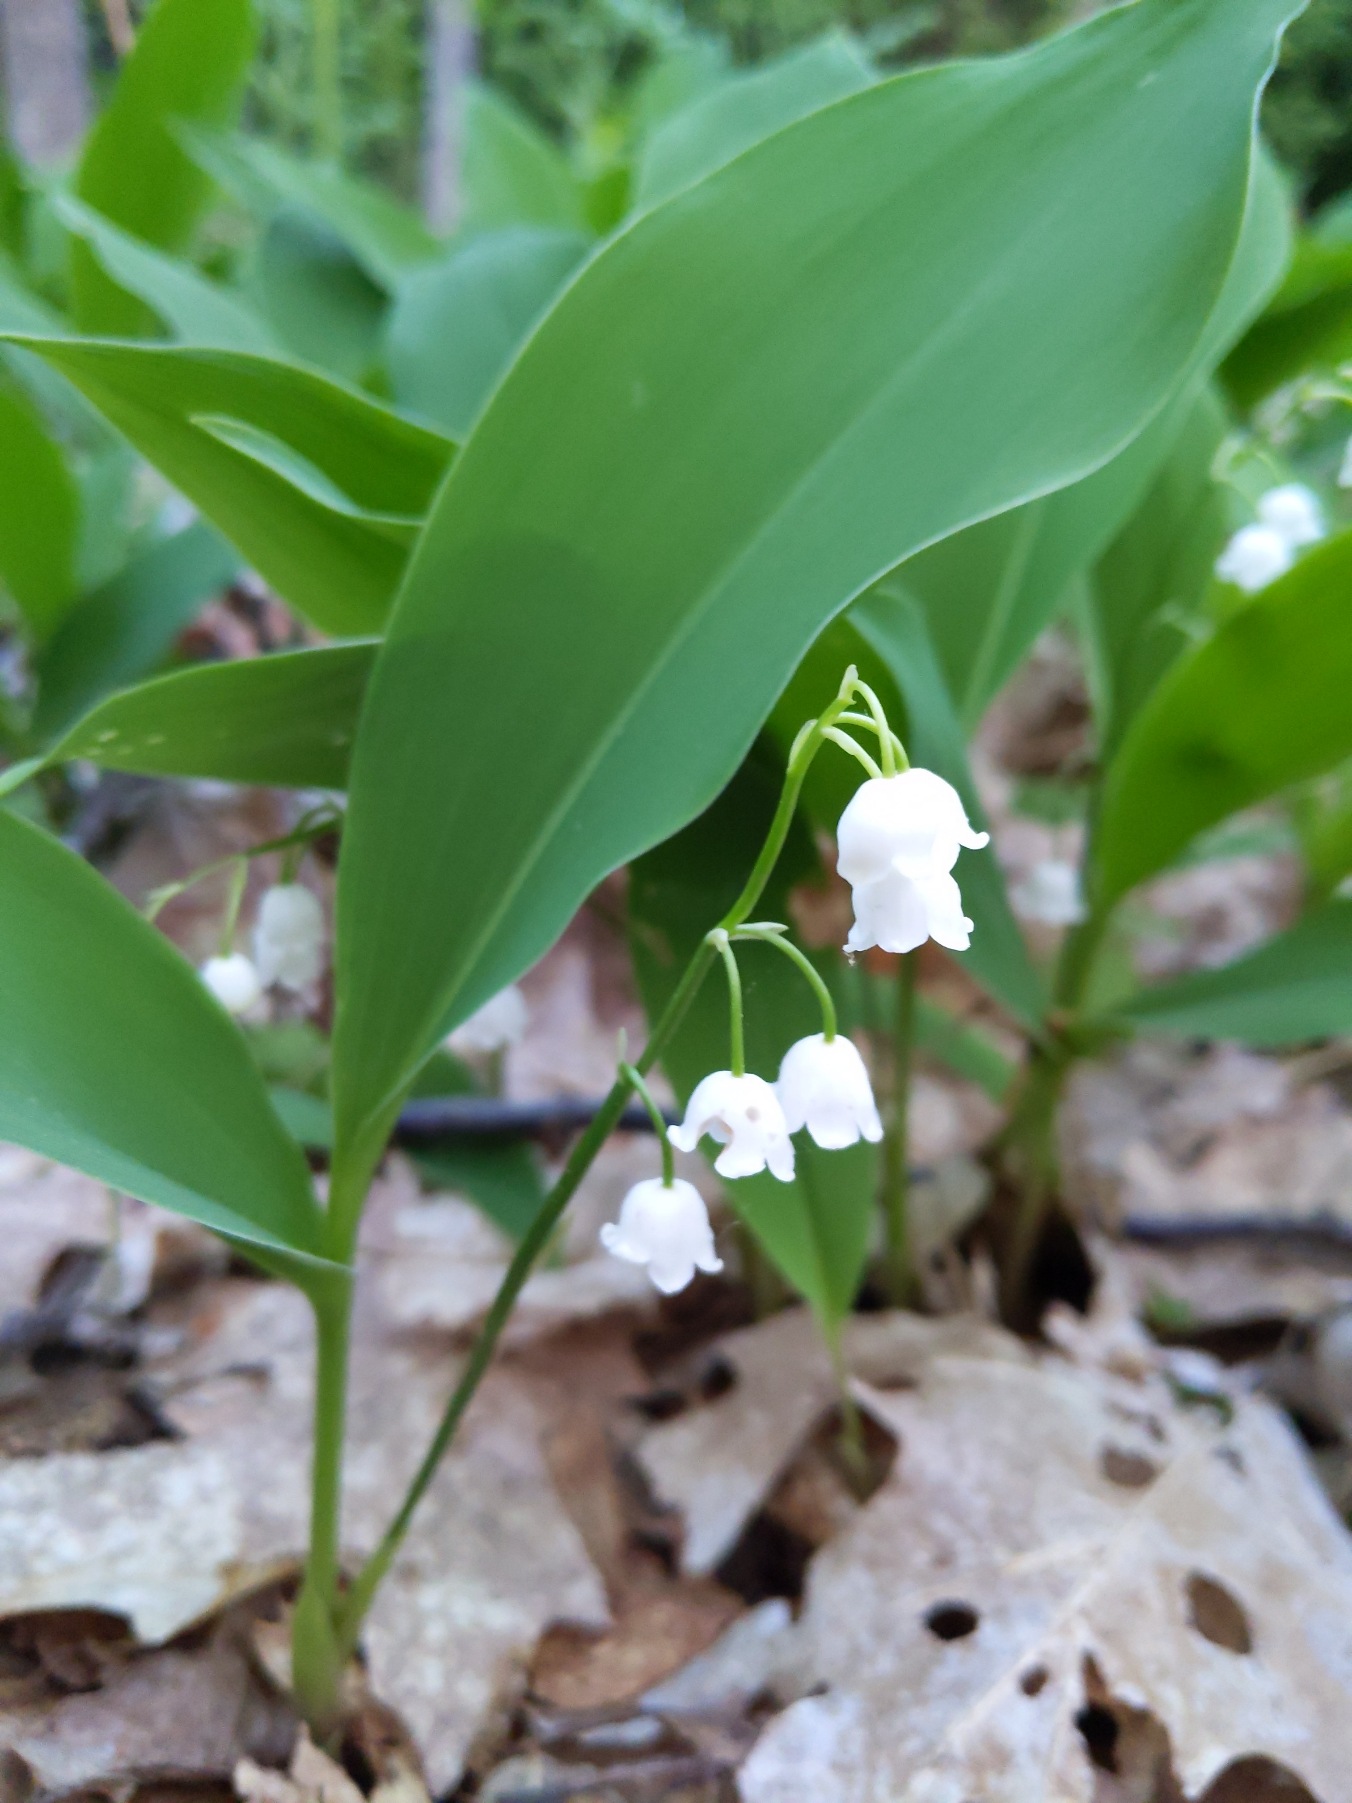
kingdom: Plantae
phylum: Tracheophyta
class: Liliopsida
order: Asparagales
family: Asparagaceae
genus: Convallaria
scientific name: Convallaria majalis
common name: Liljekonval
